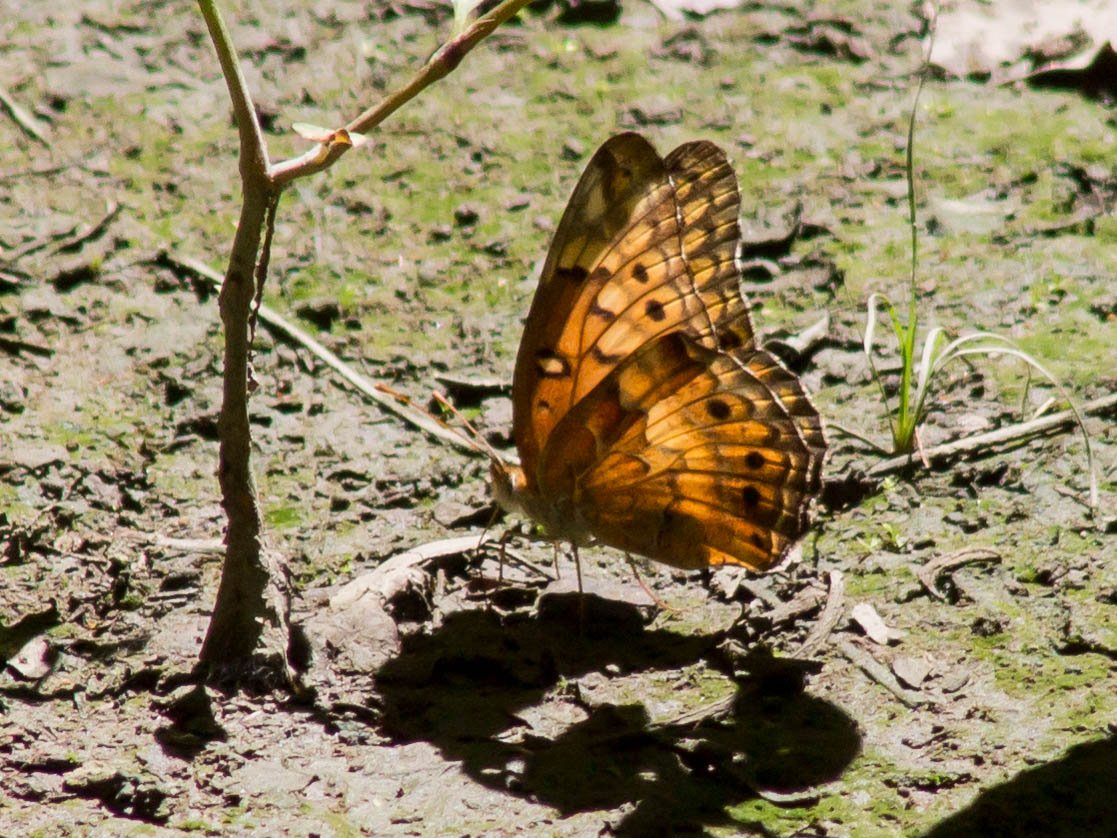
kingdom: Animalia
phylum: Arthropoda
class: Insecta
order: Lepidoptera
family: Nymphalidae
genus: Euptoieta
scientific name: Euptoieta claudia
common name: Variegated Fritillary
